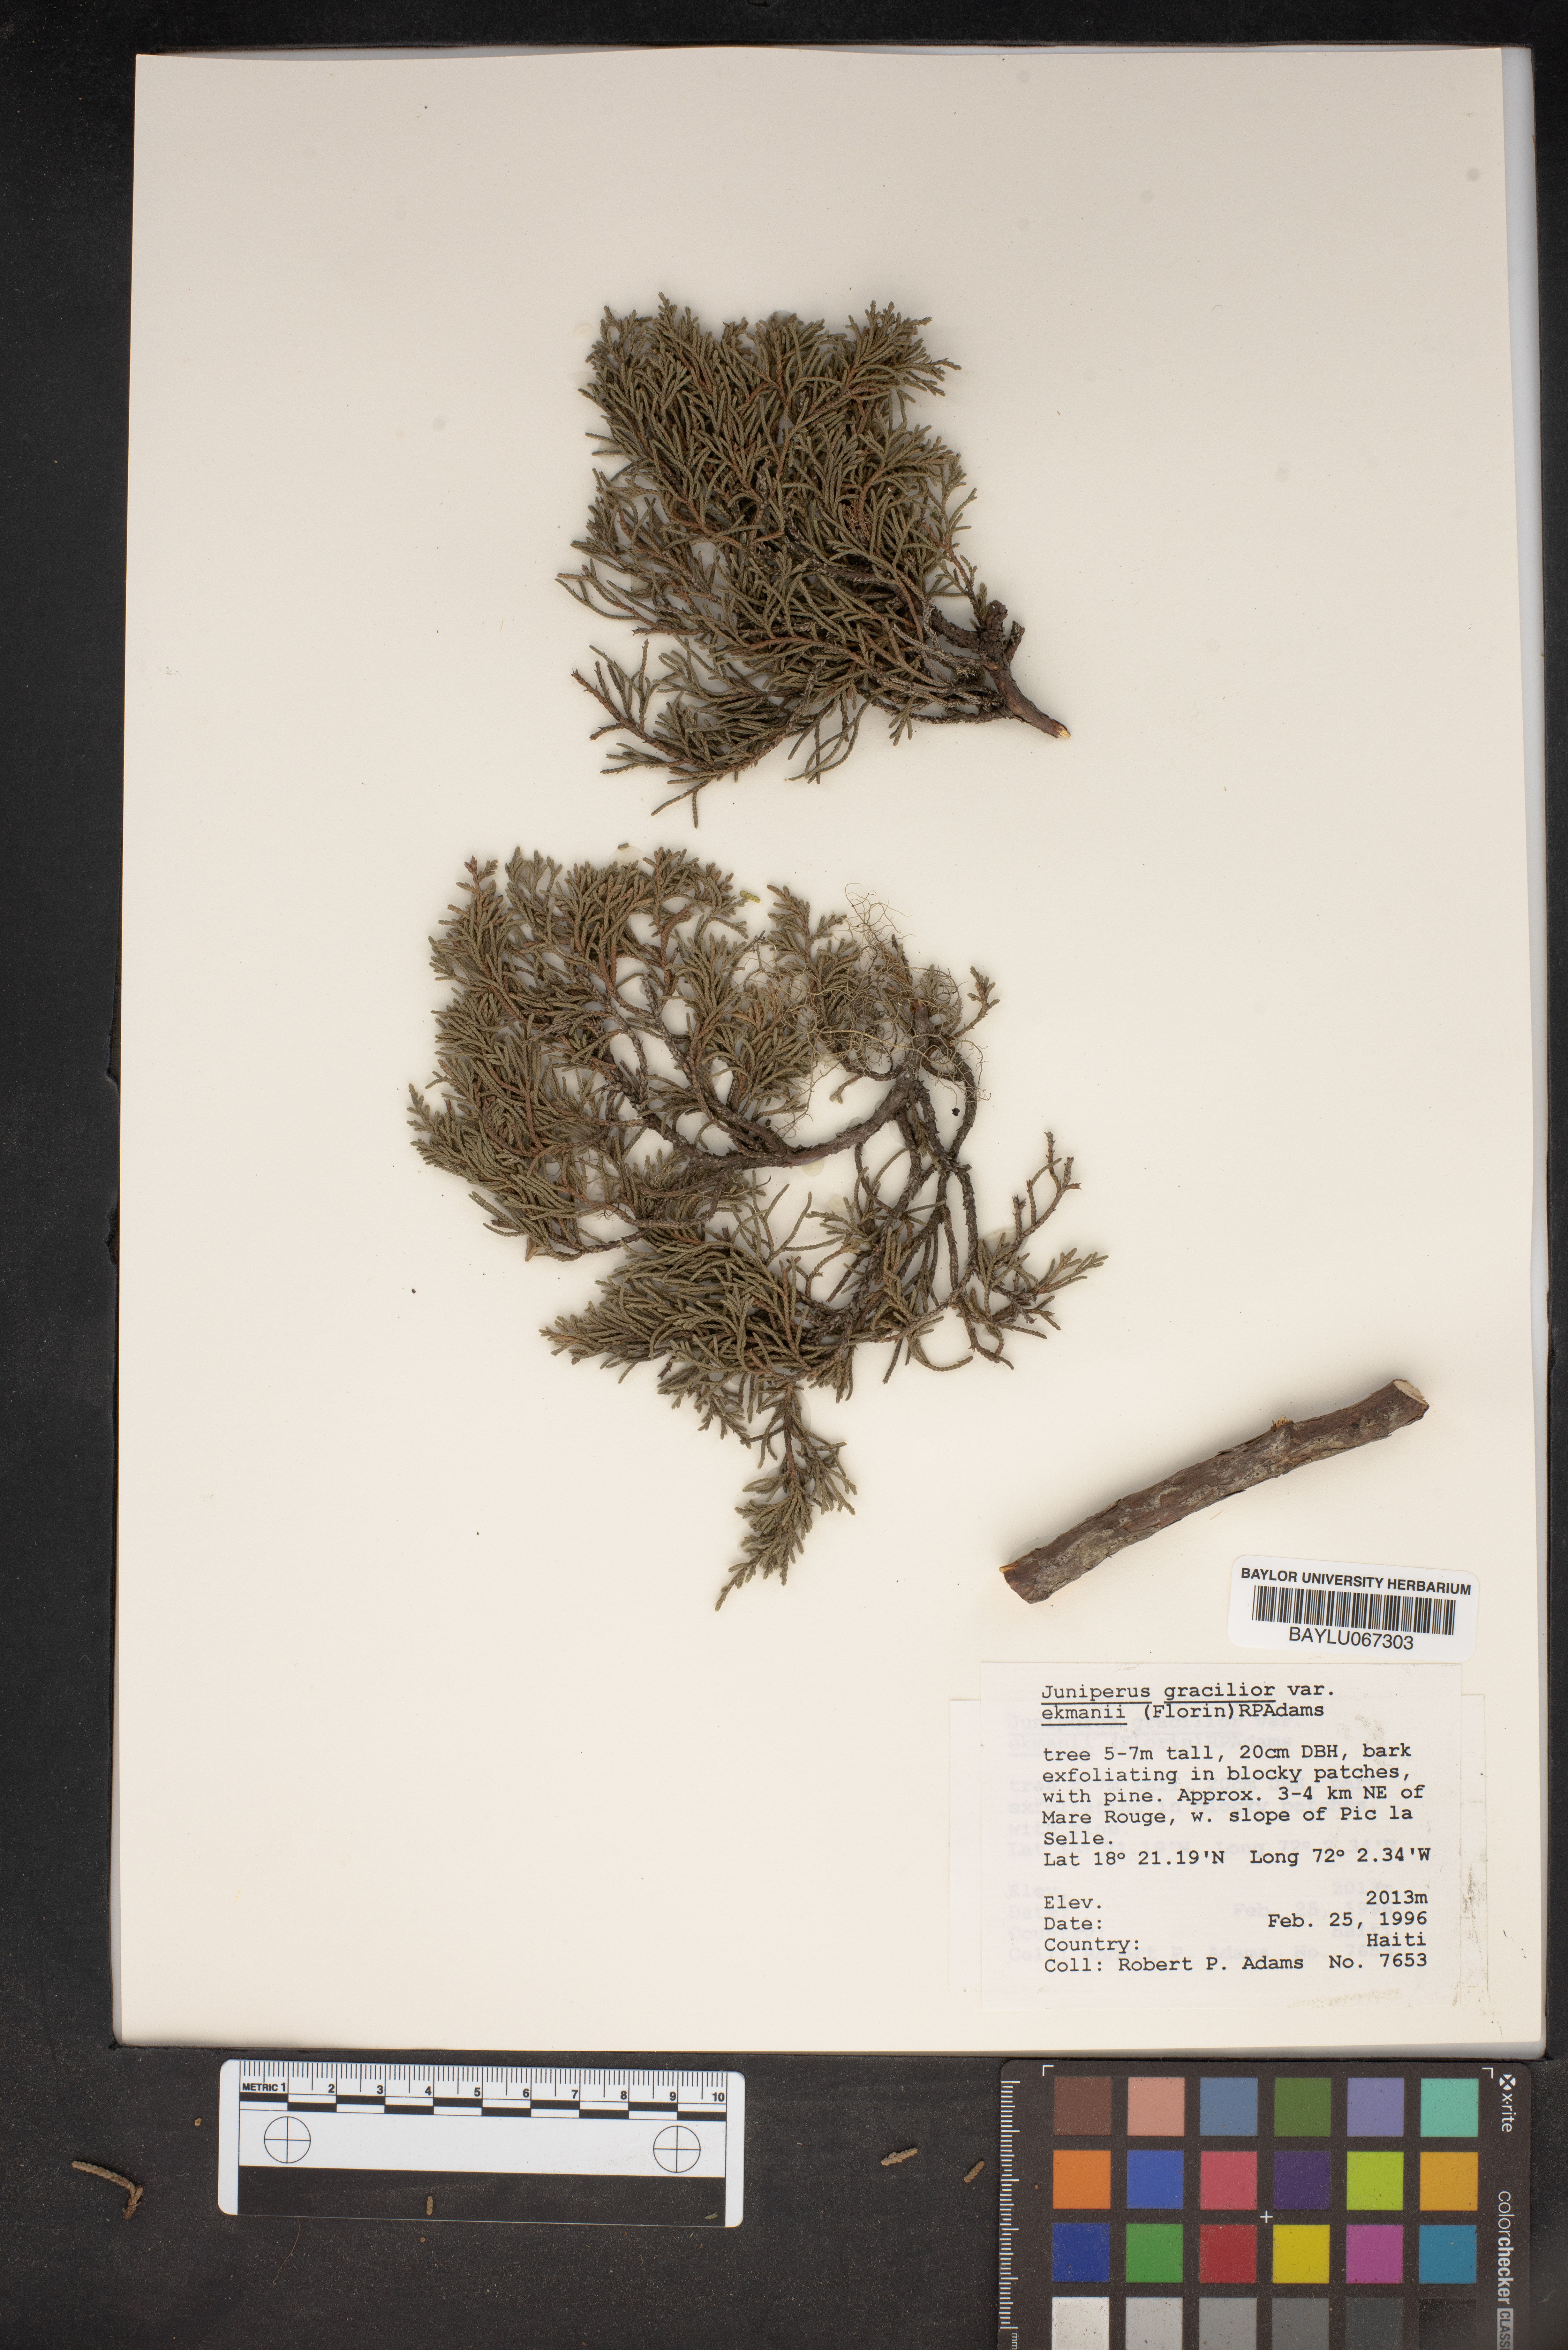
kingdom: Plantae
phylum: Tracheophyta
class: Pinopsida
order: Pinales
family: Cupressaceae
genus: Juniperus
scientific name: Juniperus gracilior
